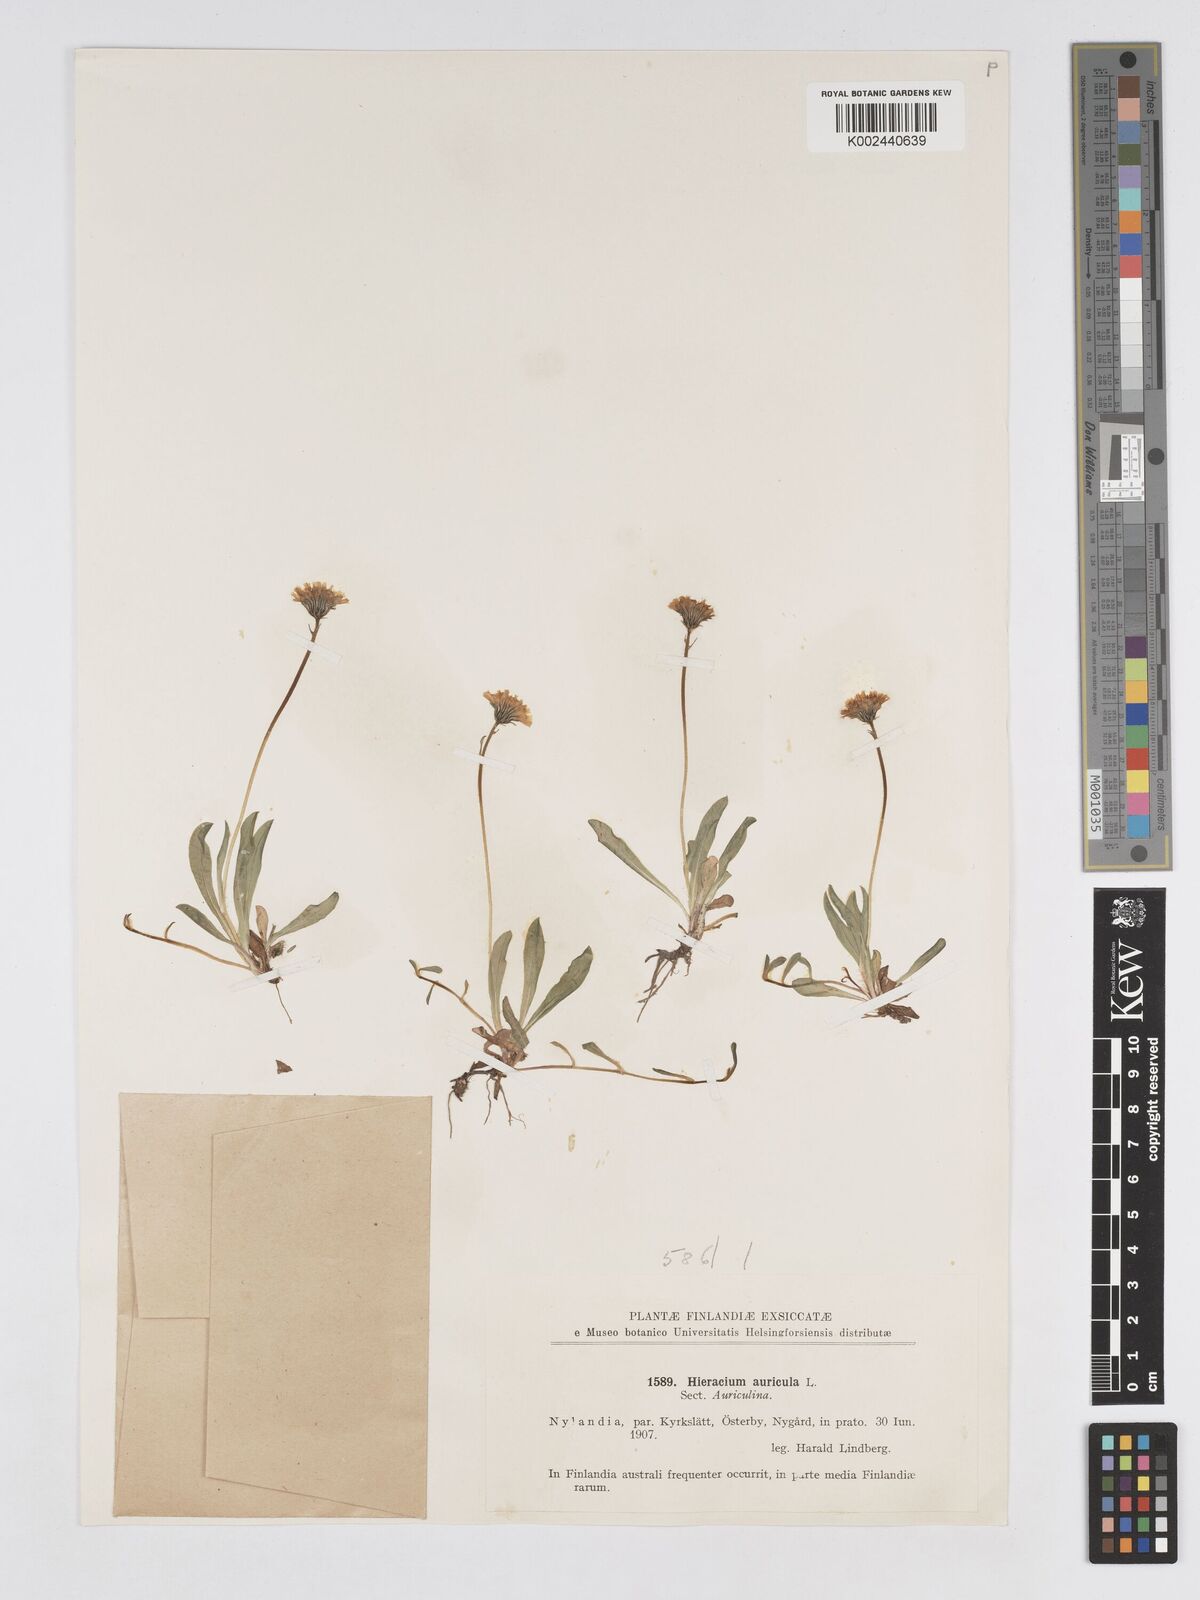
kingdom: Plantae
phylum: Tracheophyta
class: Magnoliopsida
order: Asterales
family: Asteraceae
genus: Hieracium
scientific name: Hieracium
